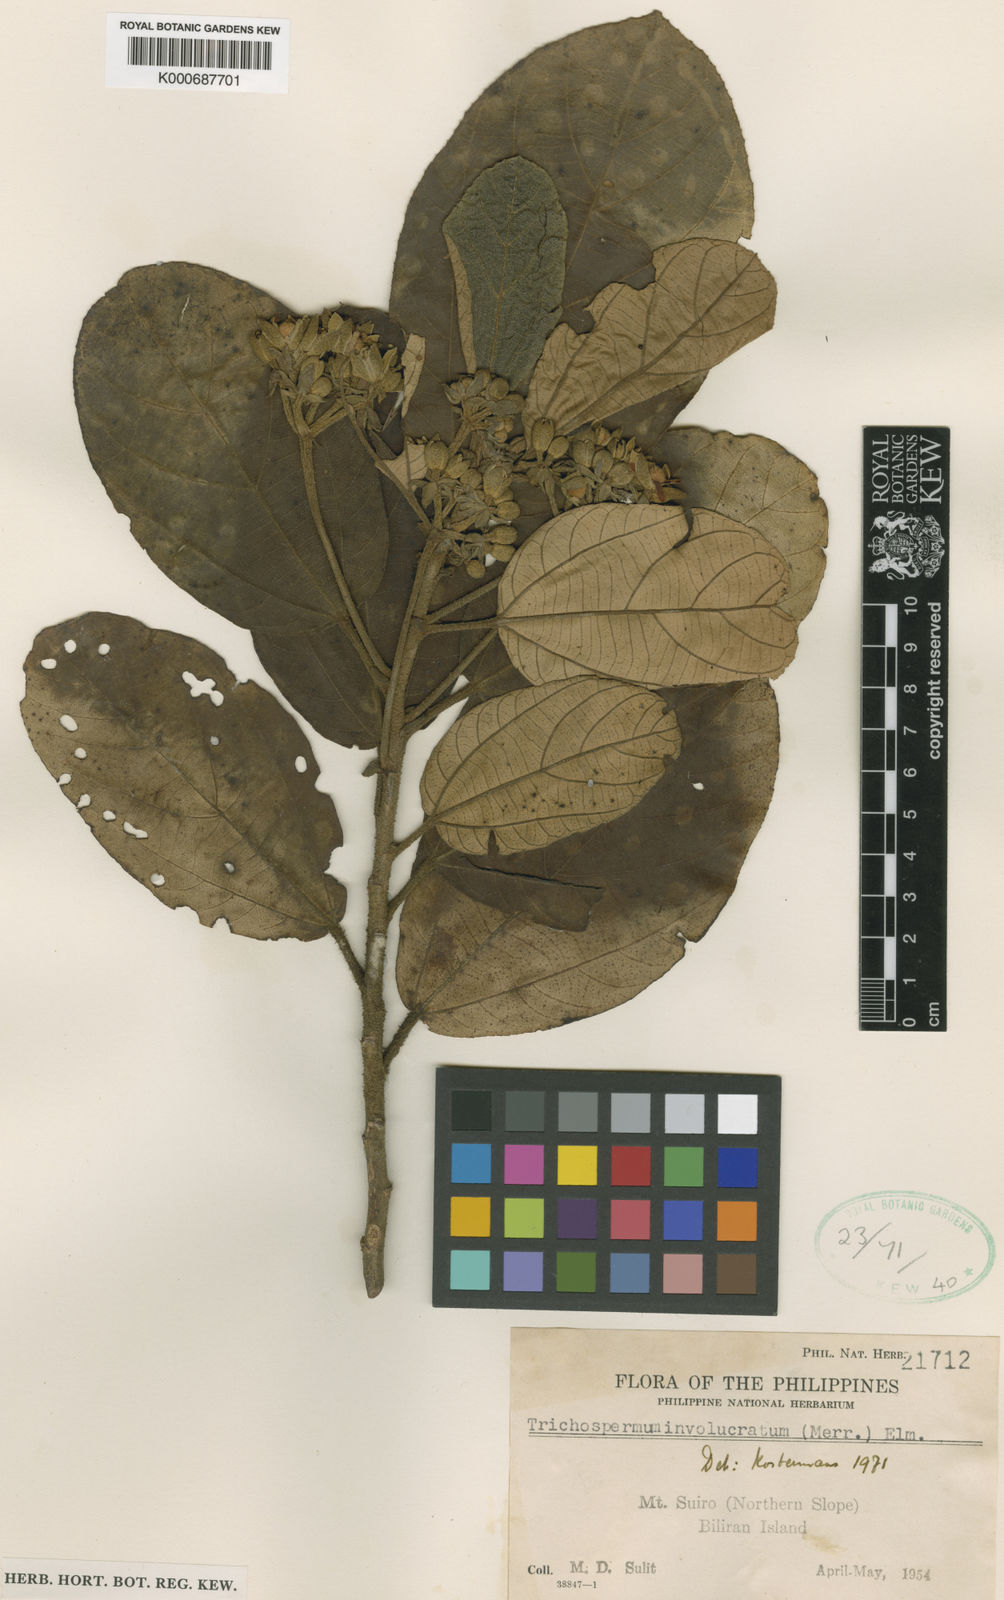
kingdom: Plantae
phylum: Tracheophyta
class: Magnoliopsida
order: Malvales
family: Malvaceae
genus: Trichospermum
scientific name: Trichospermum involucratum
